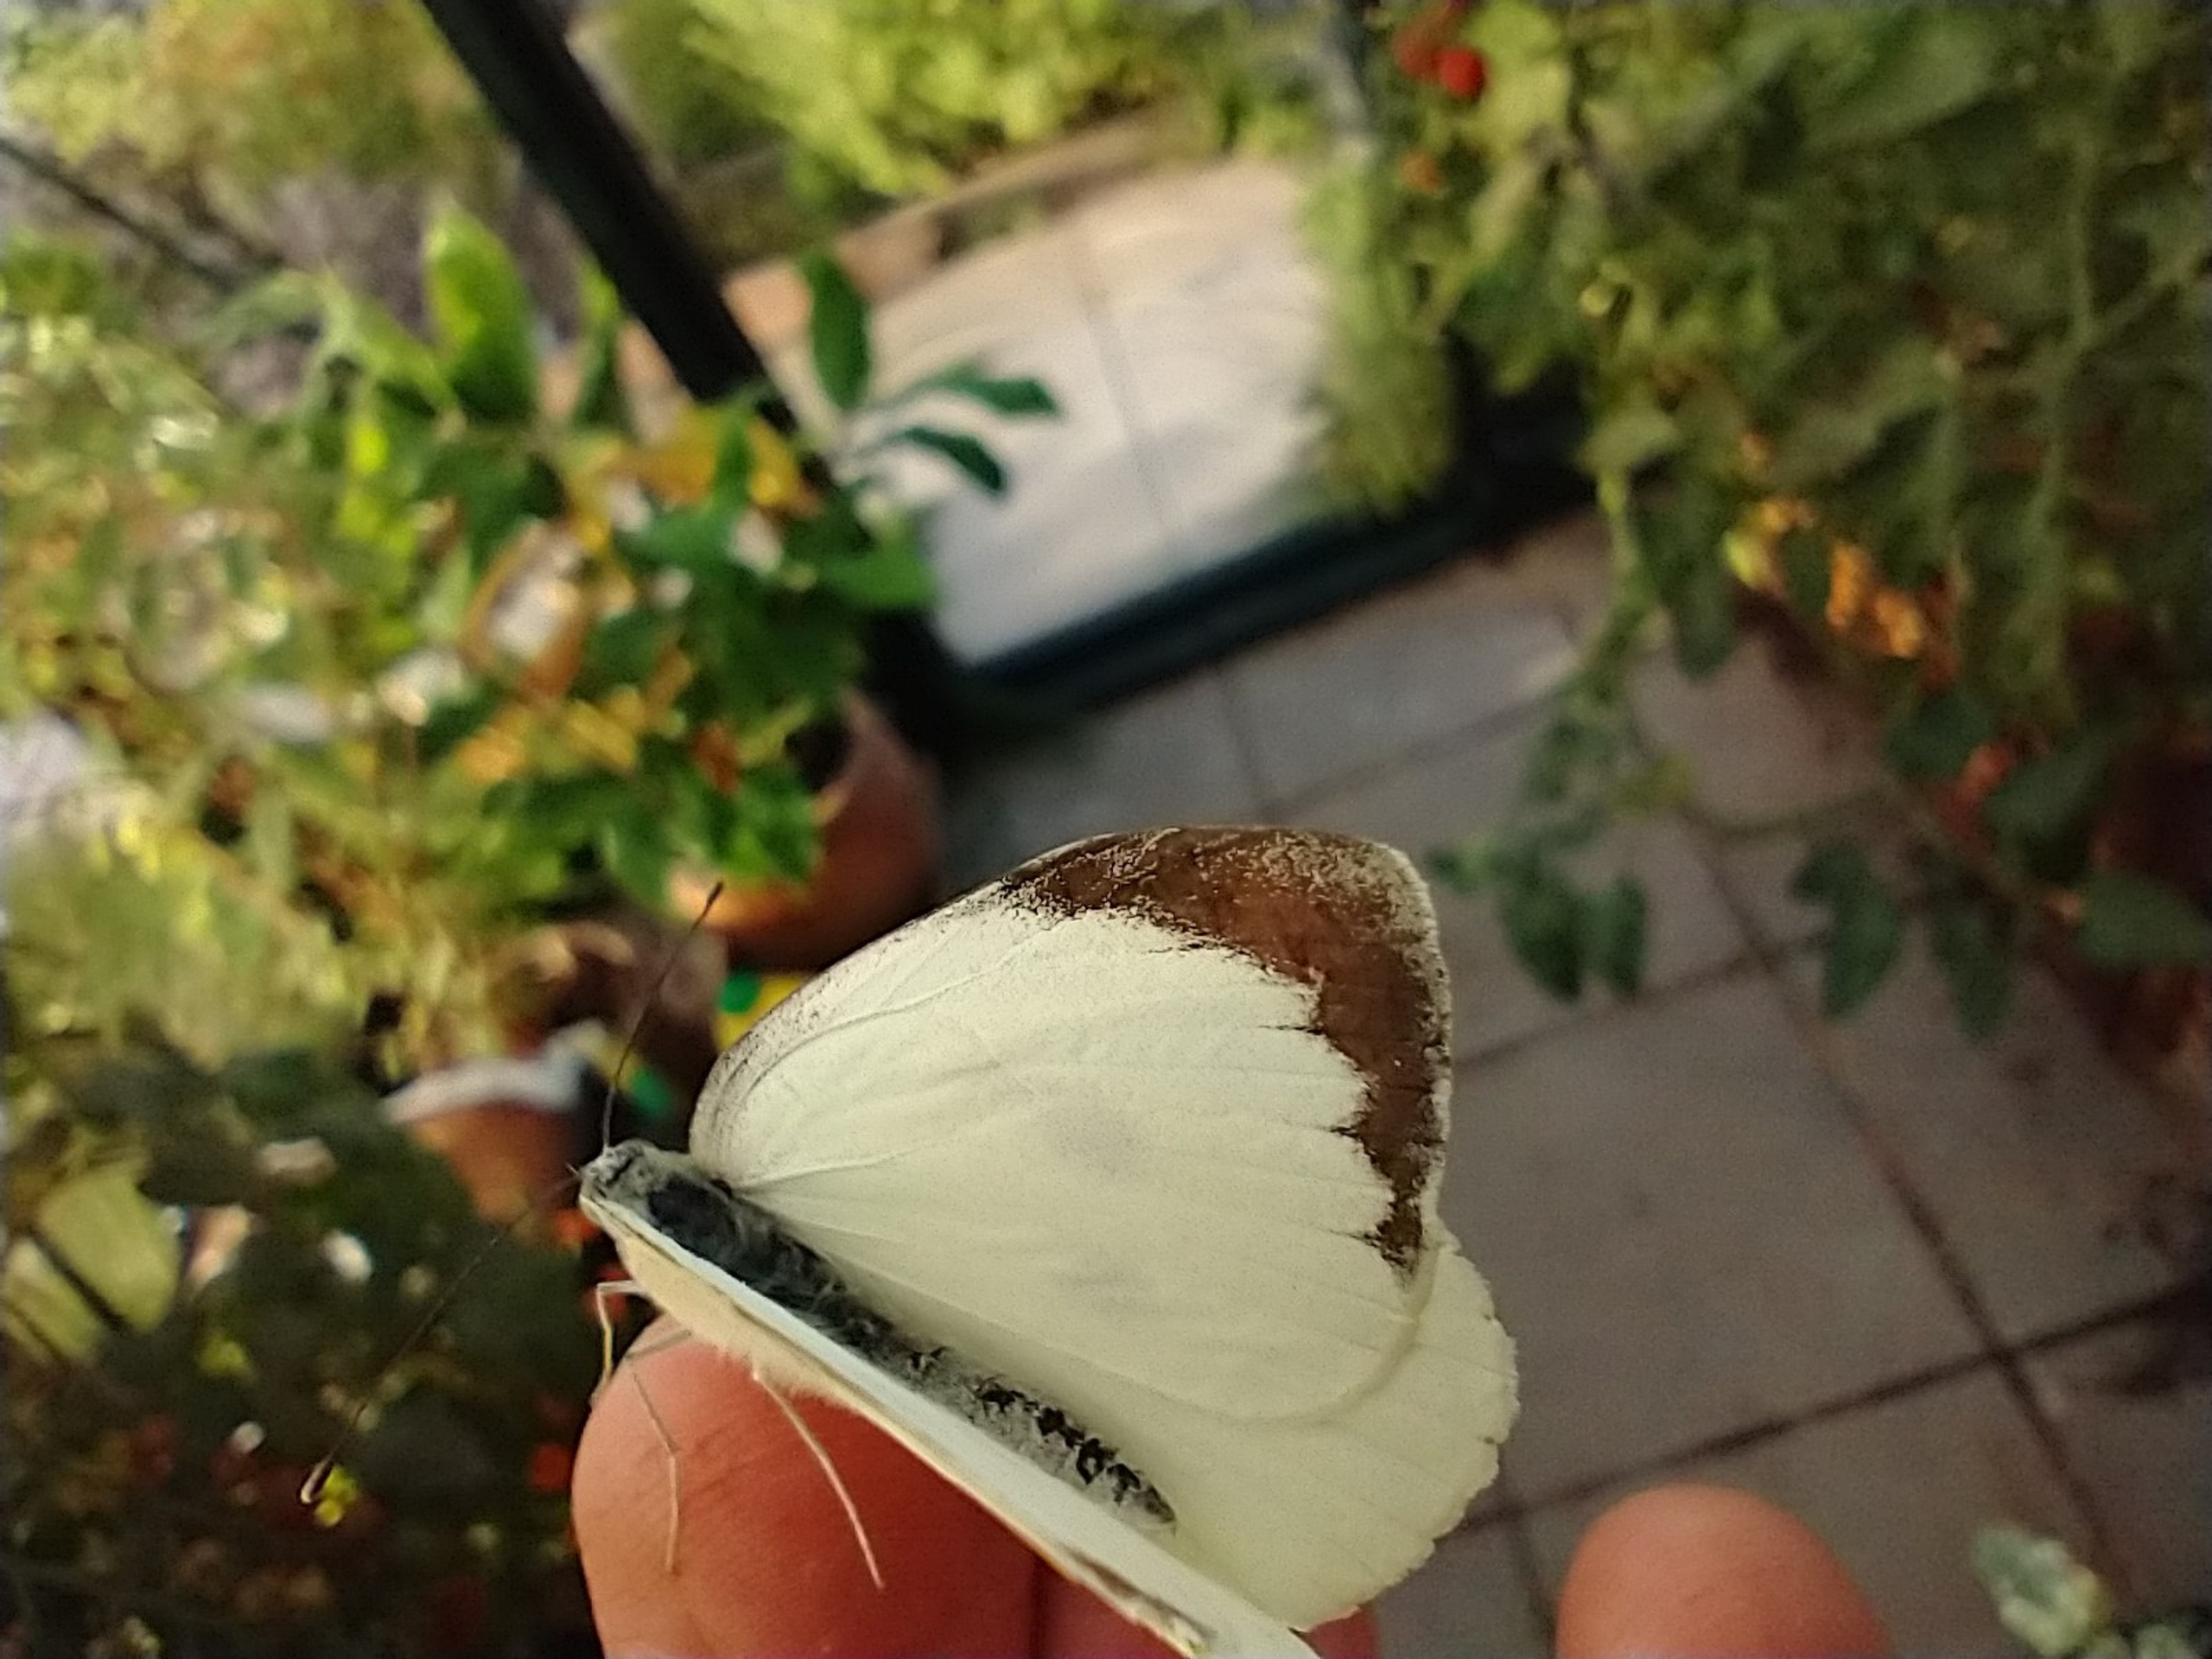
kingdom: Animalia
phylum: Arthropoda
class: Insecta
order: Lepidoptera
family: Pieridae
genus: Pieris
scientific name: Pieris brassicae
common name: Stor kålsommerfugl
